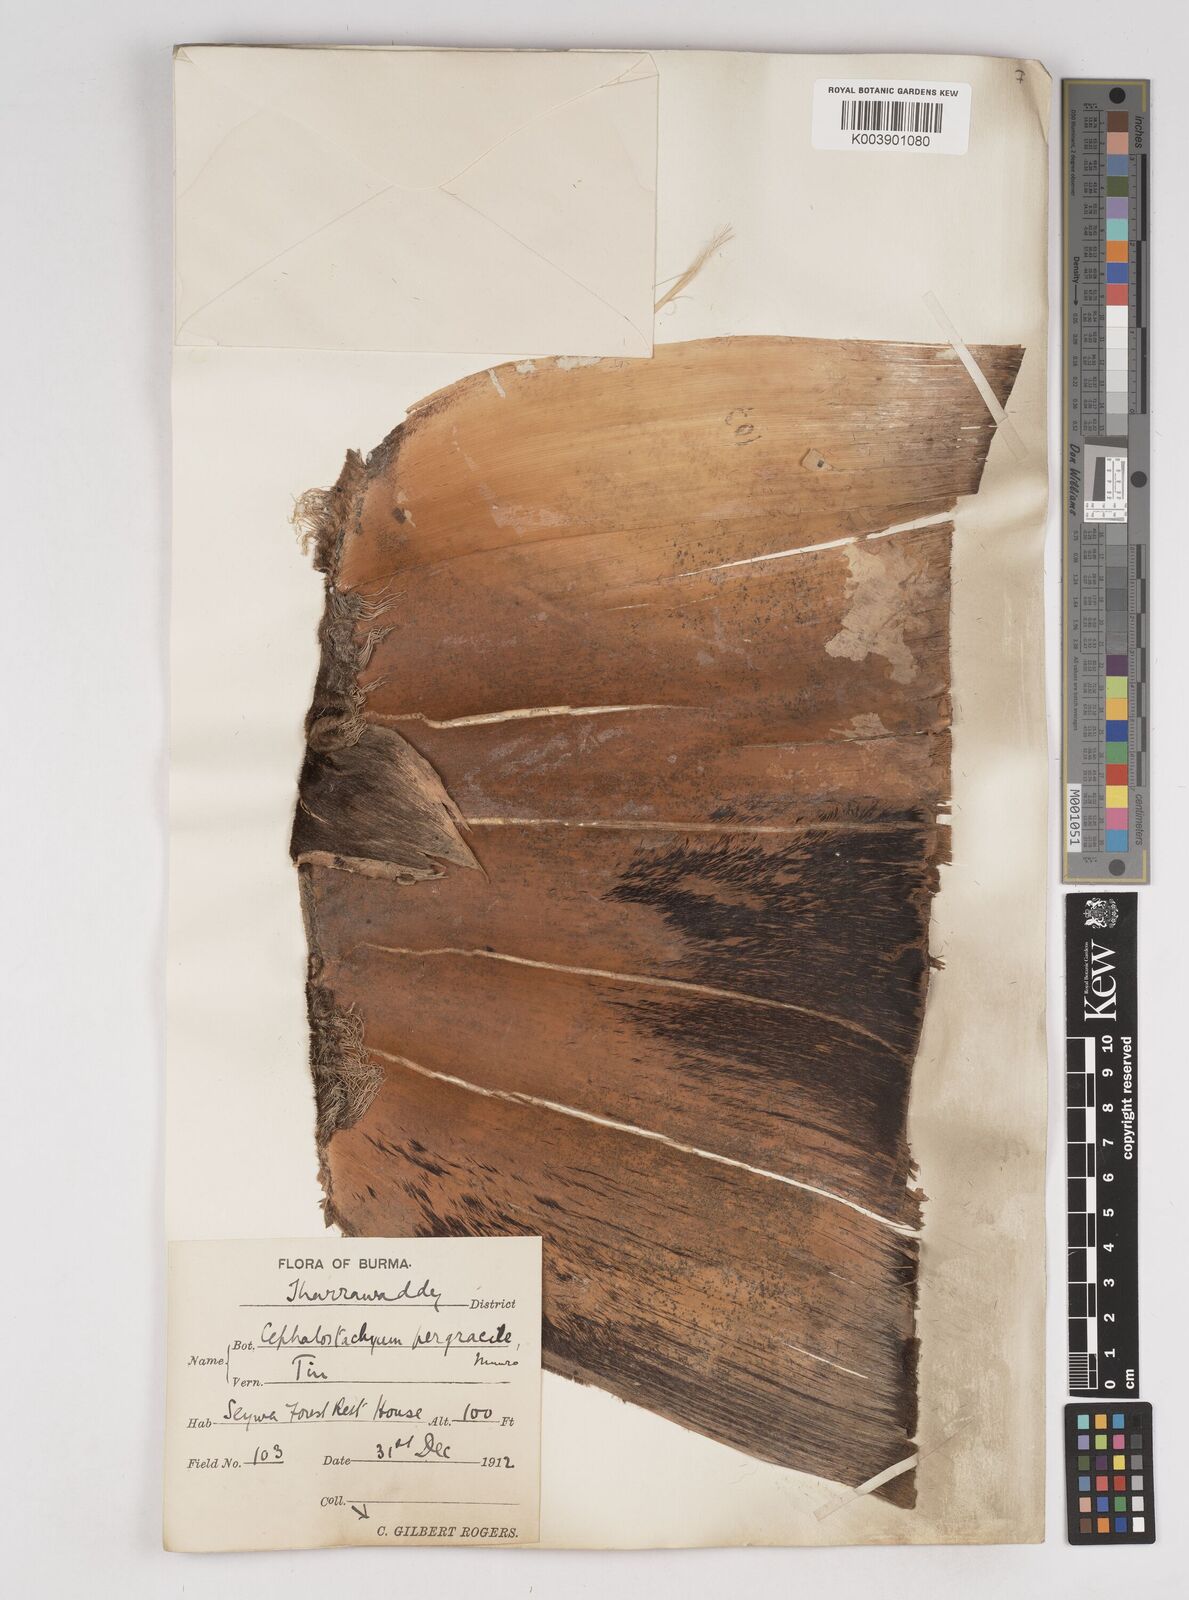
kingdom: Plantae
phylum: Tracheophyta
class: Liliopsida
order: Poales
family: Poaceae
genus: Schizostachyum
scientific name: Schizostachyum pergracile
